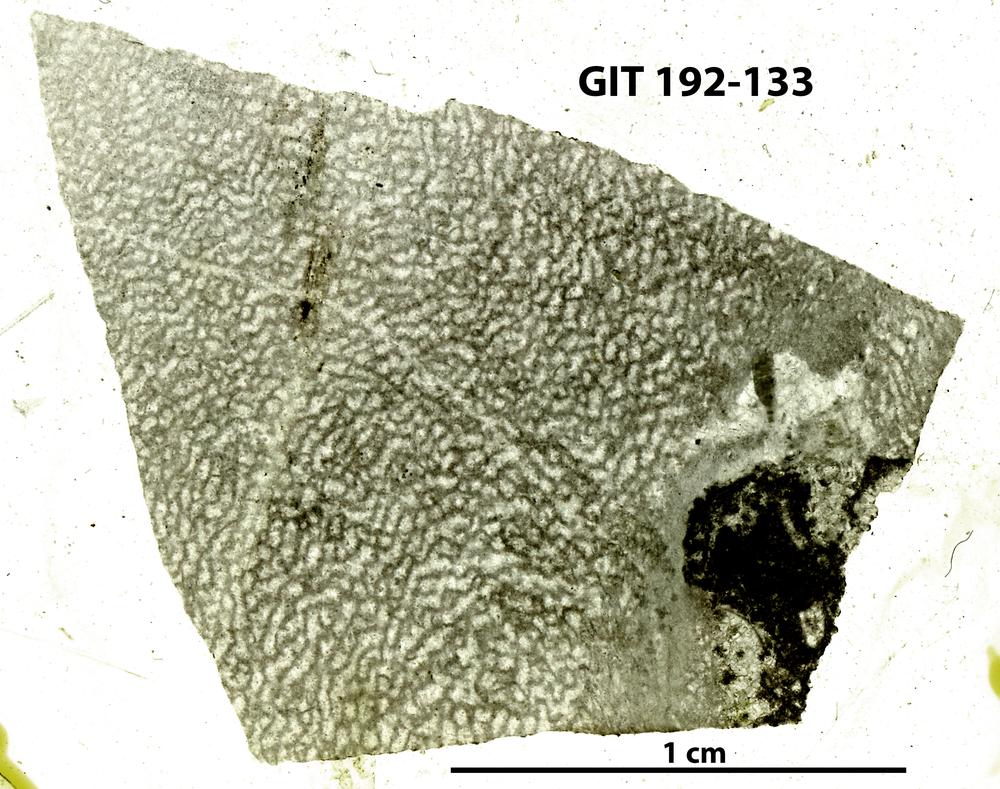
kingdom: Animalia
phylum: Porifera
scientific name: Porifera
